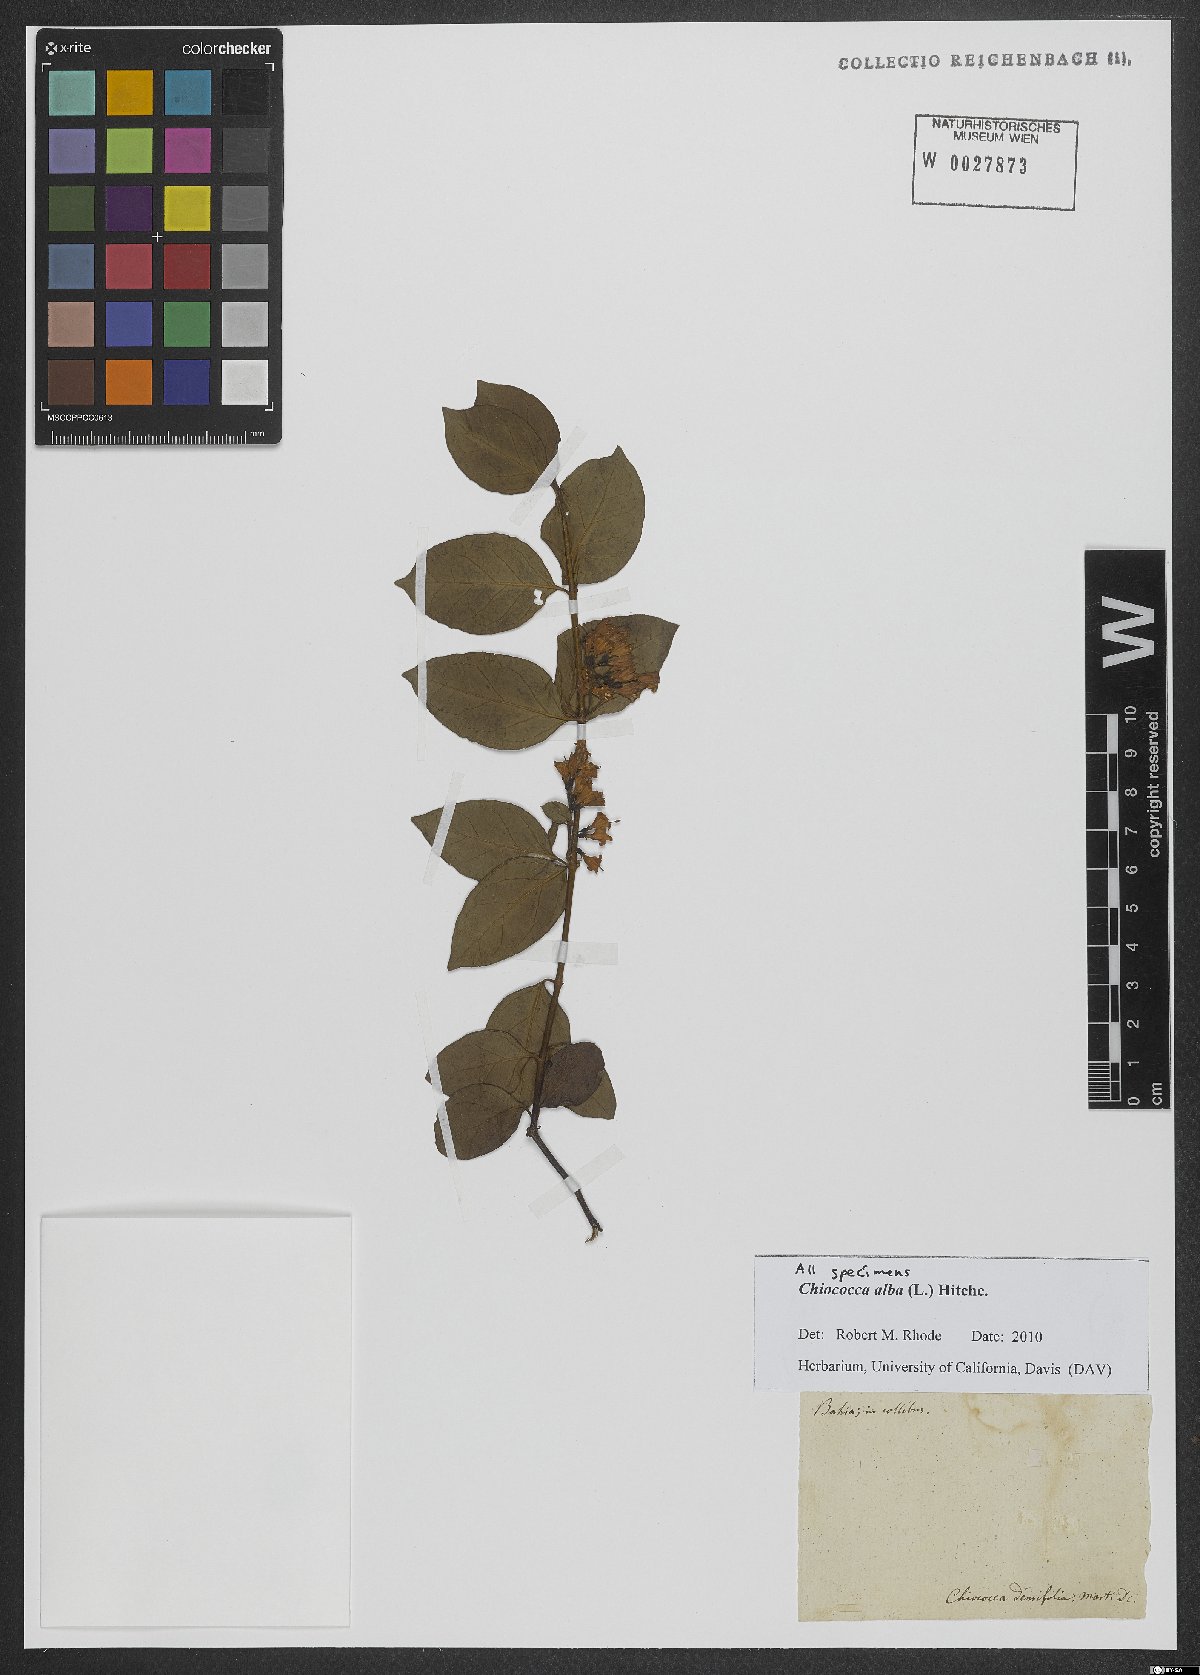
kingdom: Plantae
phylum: Tracheophyta
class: Magnoliopsida
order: Gentianales
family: Rubiaceae
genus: Chiococca
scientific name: Chiococca alba
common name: Snowberry
